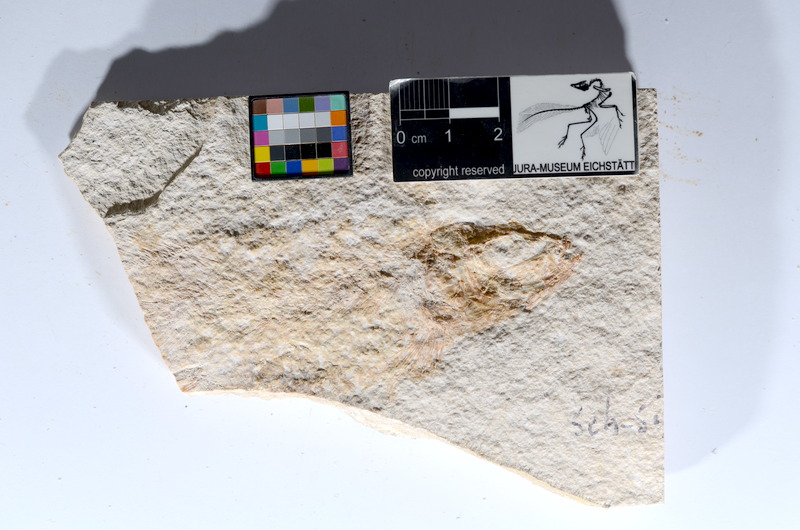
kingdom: Animalia
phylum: Chordata
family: Ascalaboidae
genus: Tharsis
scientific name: Tharsis dubius
